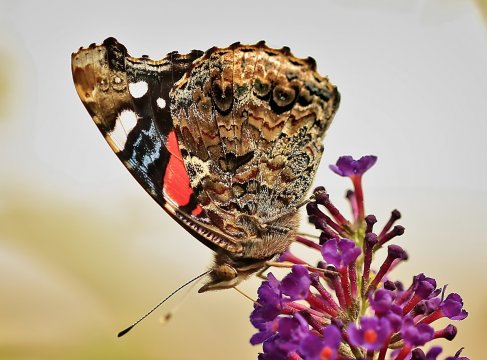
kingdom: Animalia
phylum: Arthropoda
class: Insecta
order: Lepidoptera
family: Nymphalidae
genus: Vanessa
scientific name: Vanessa atalanta
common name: Red Admiral
